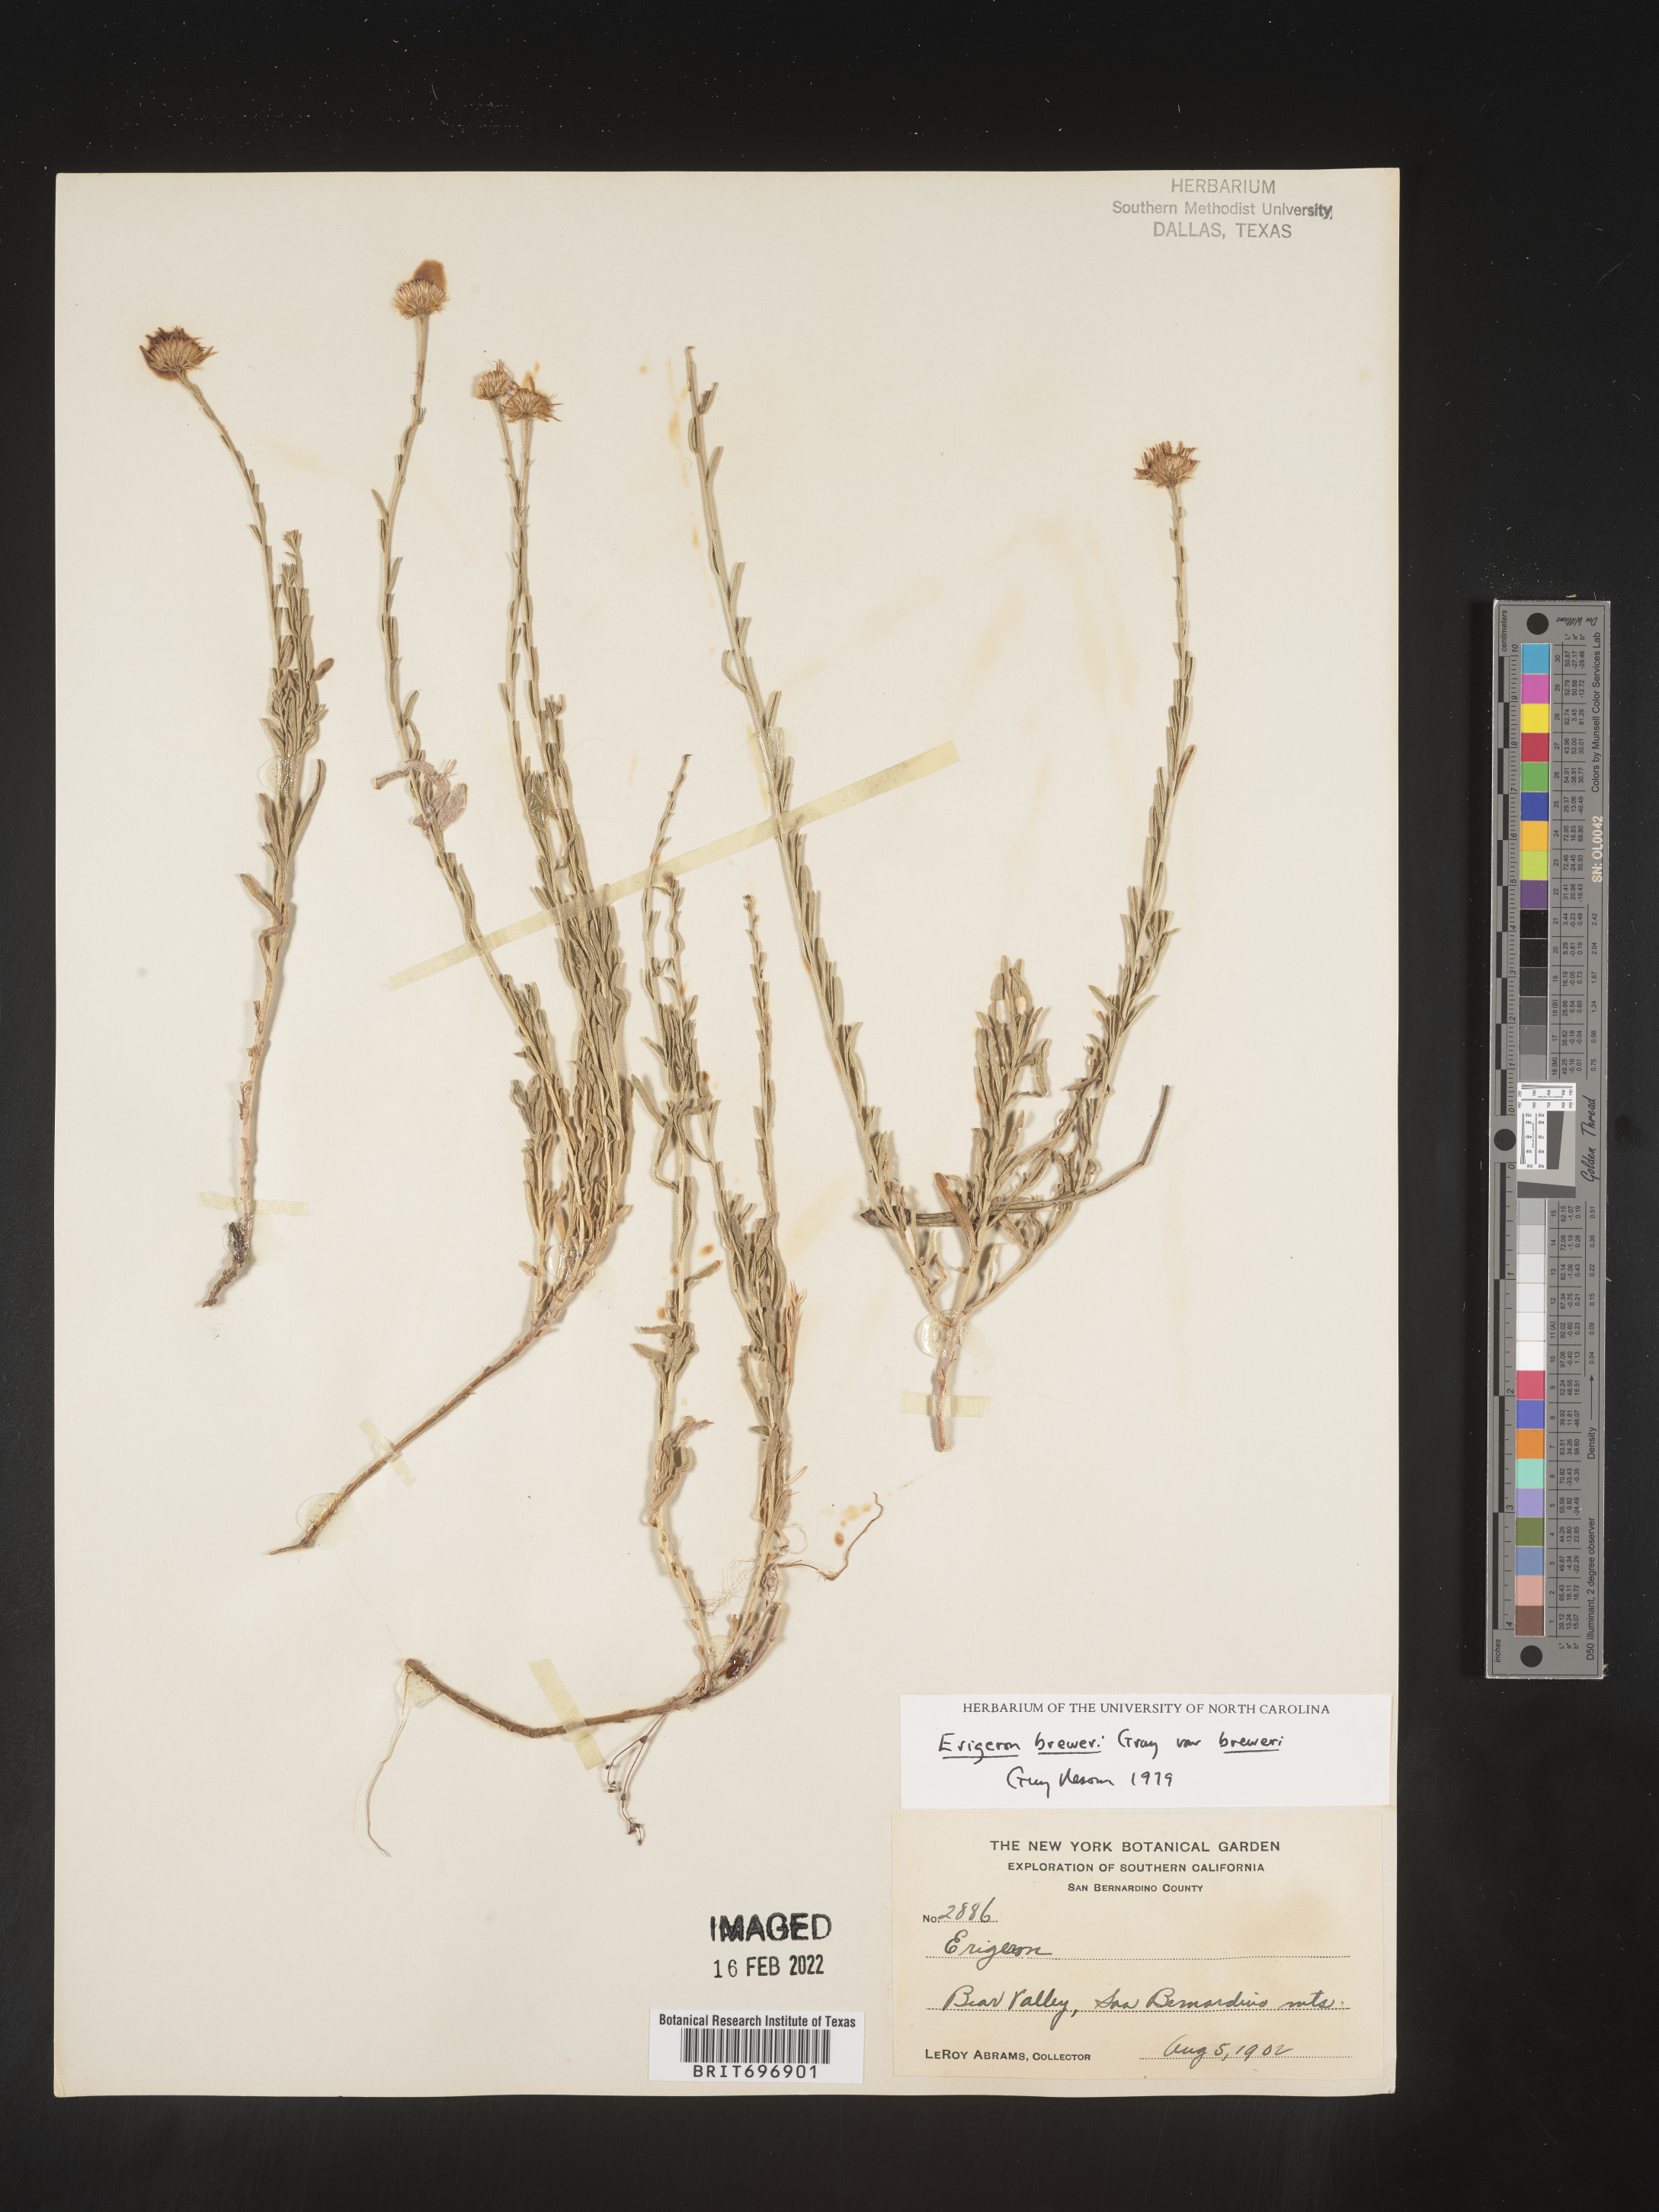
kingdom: Plantae
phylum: Tracheophyta
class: Magnoliopsida
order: Asterales
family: Asteraceae
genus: Erigeron
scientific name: Erigeron breweri
